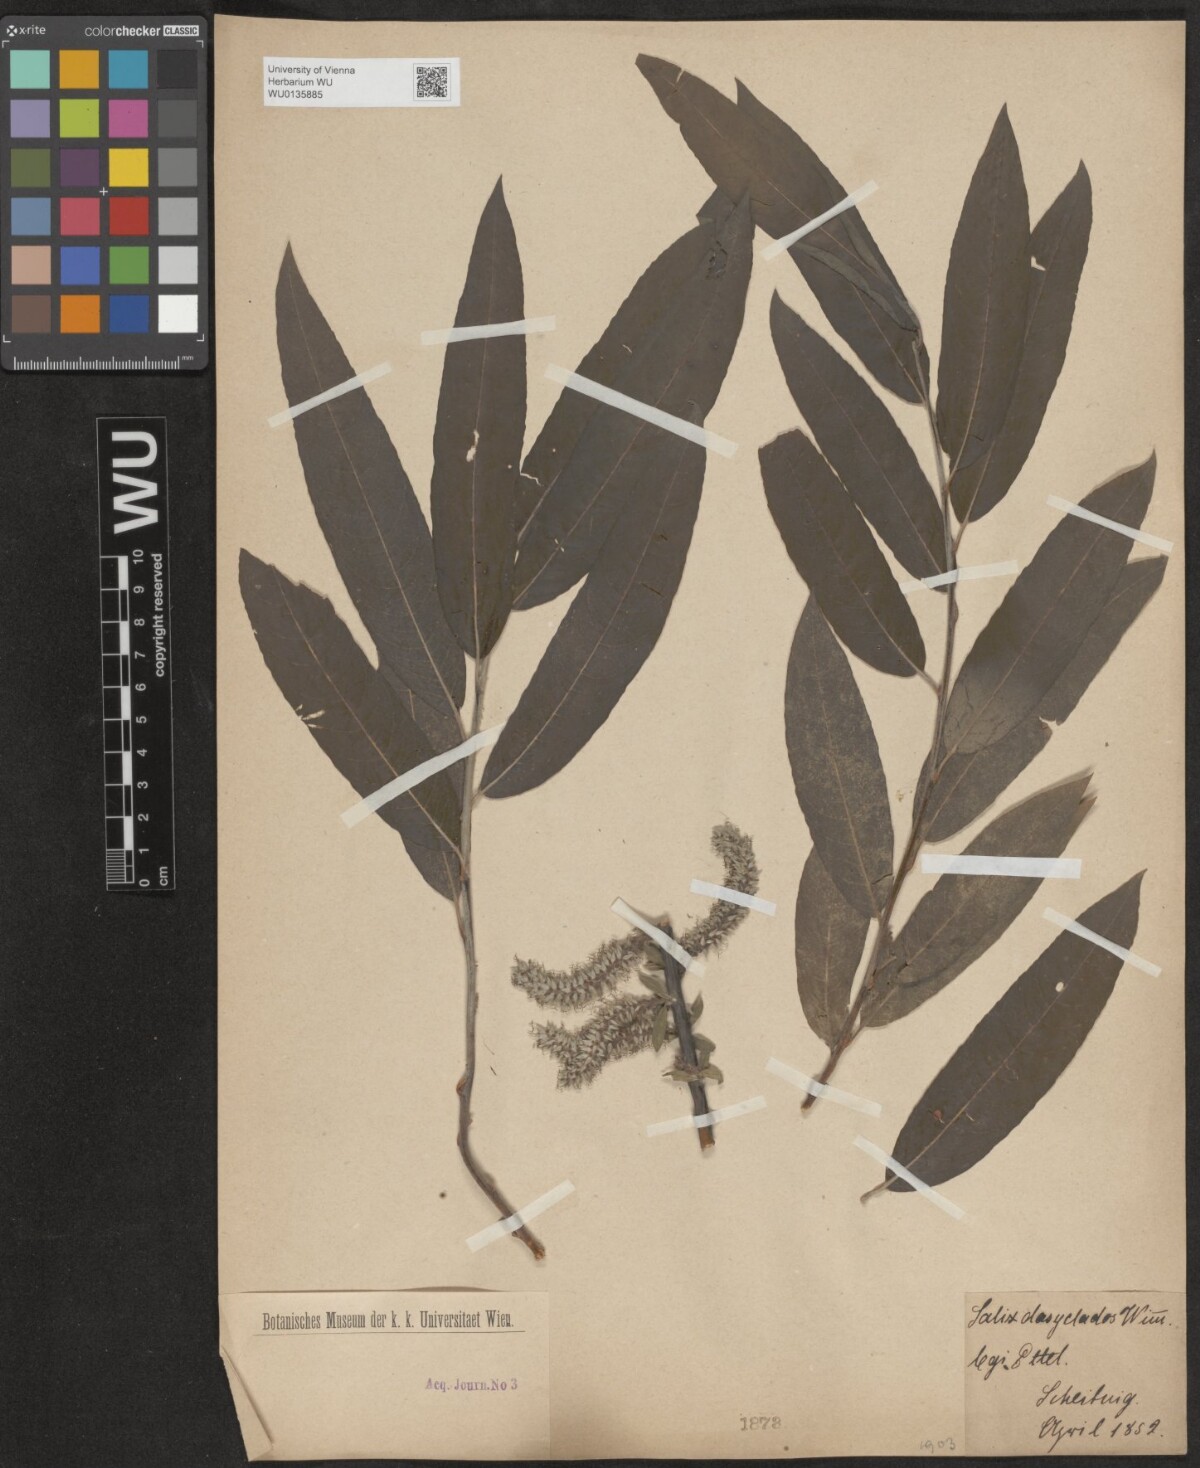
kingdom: Plantae
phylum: Tracheophyta
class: Magnoliopsida
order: Malpighiales
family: Salicaceae
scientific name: Salicaceae
